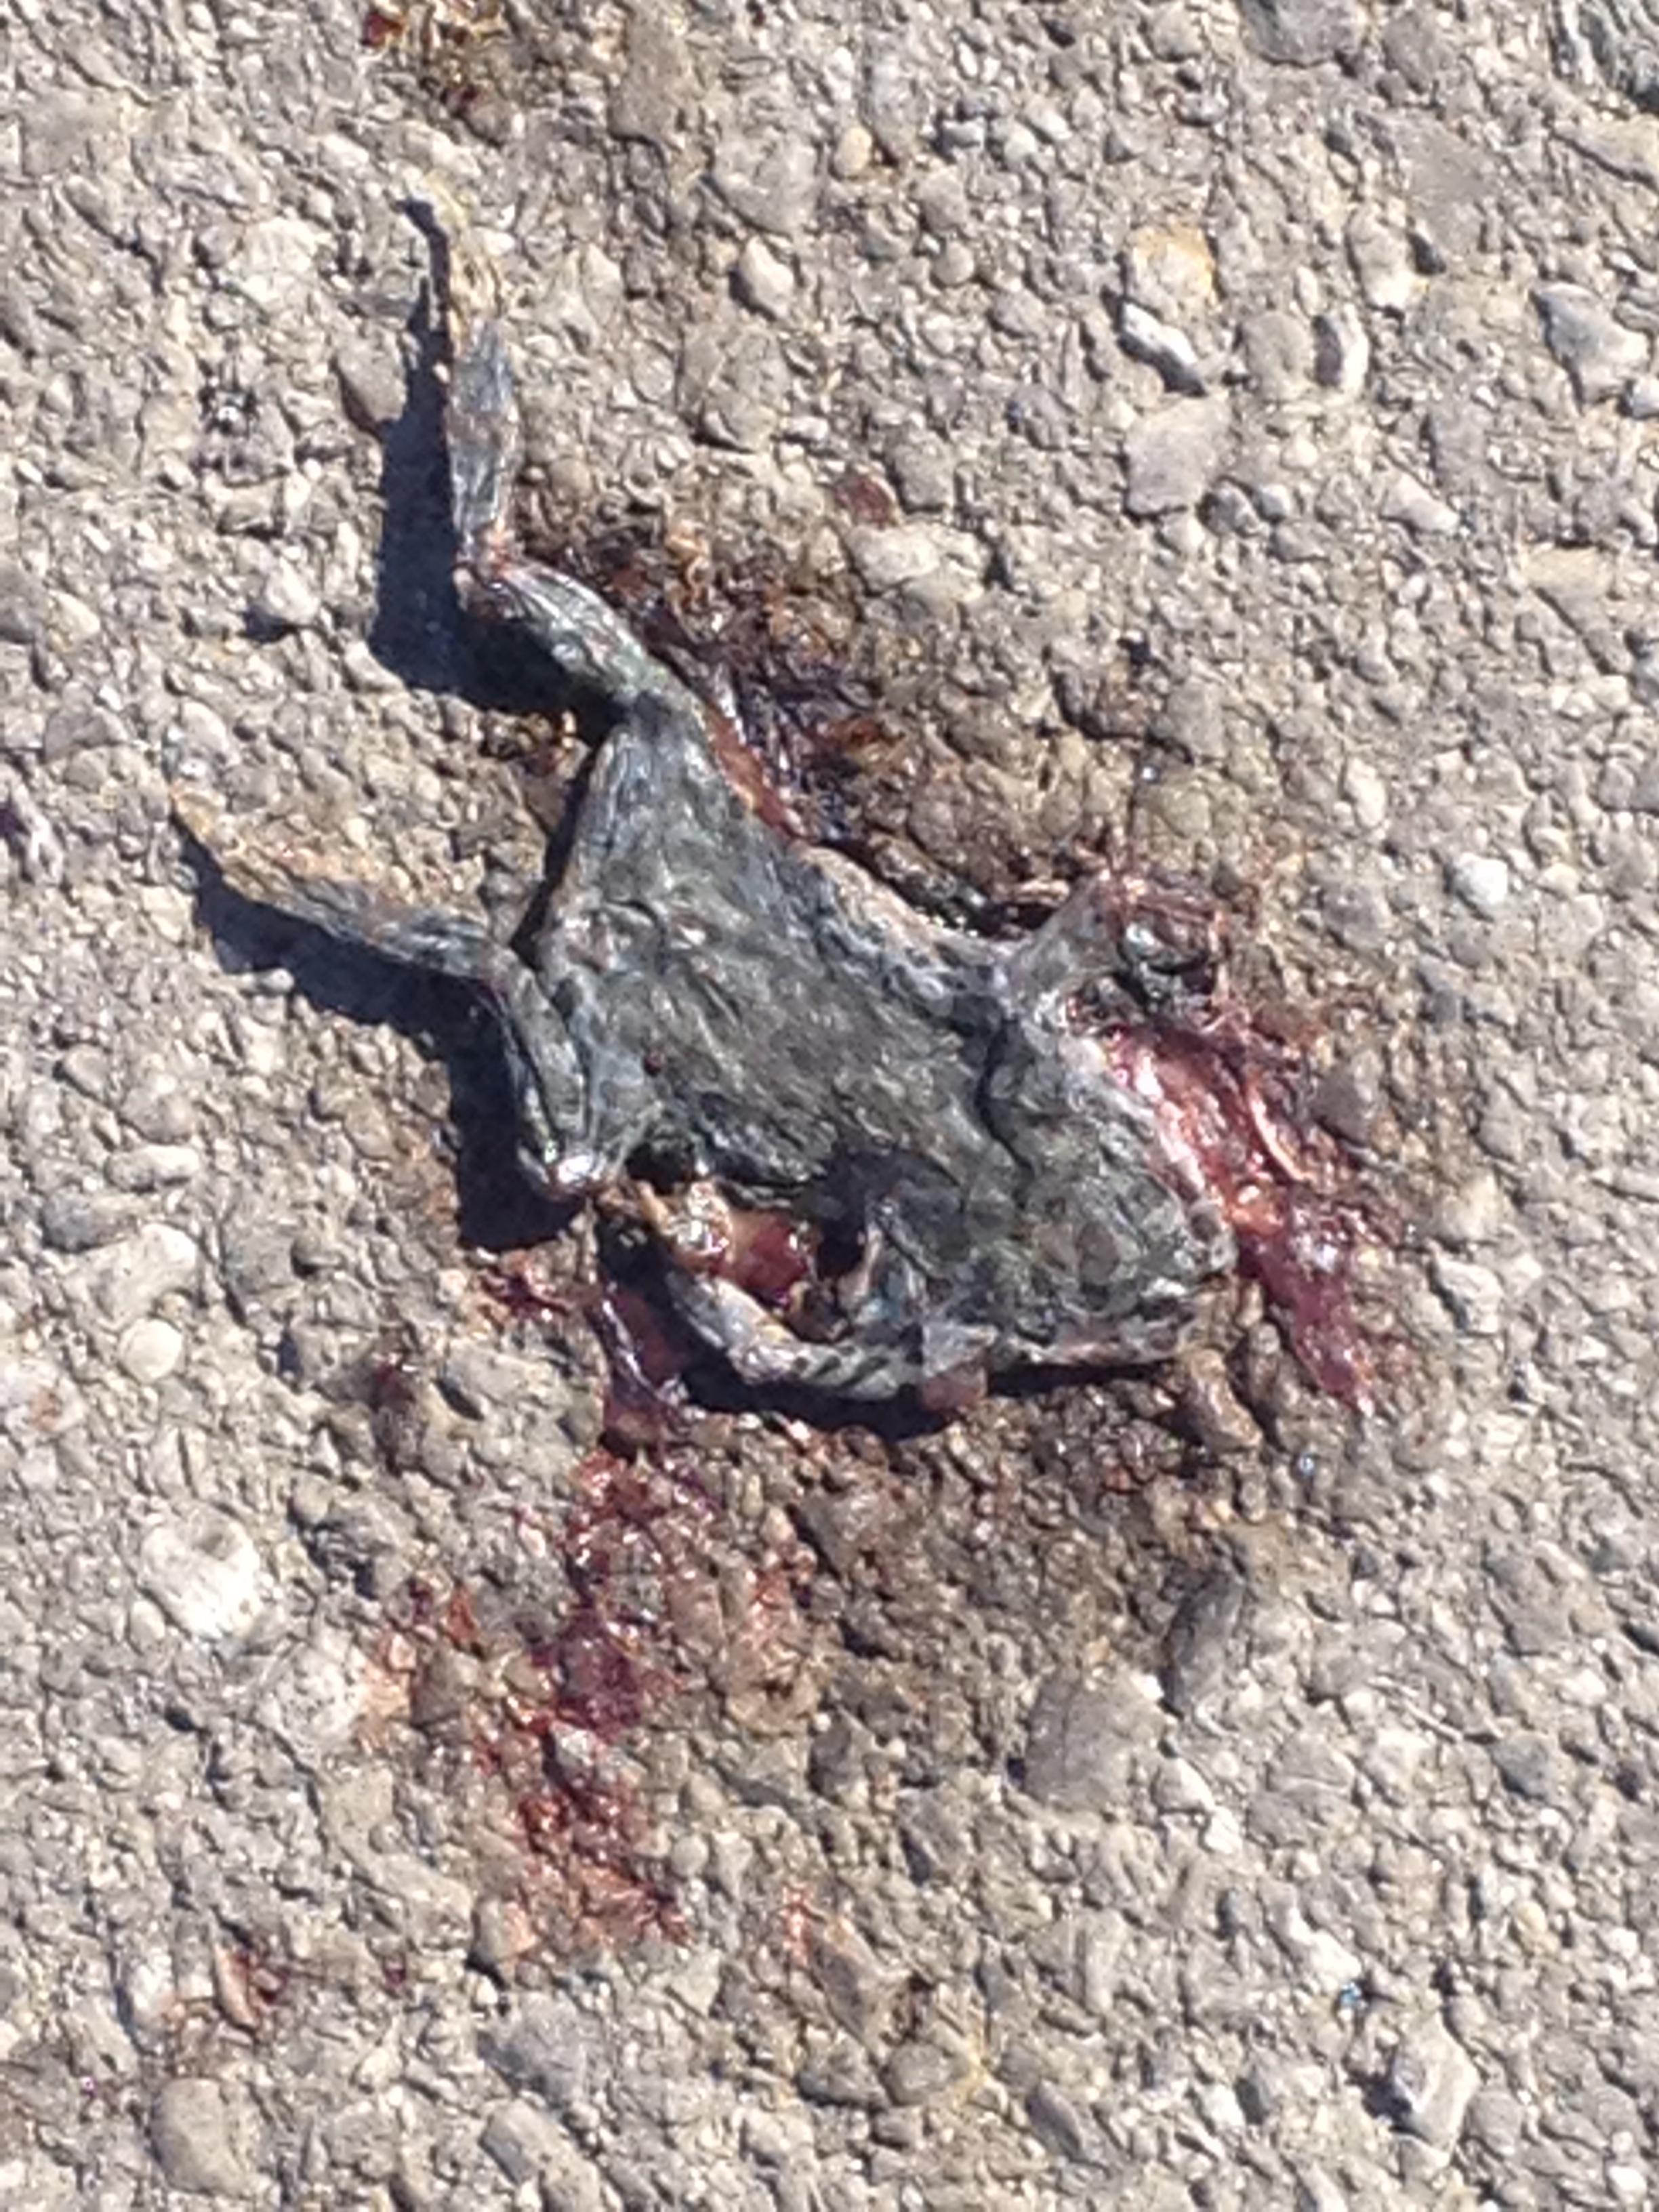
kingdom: Animalia
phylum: Chordata
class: Amphibia
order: Anura
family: Bufonidae
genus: Bufotes
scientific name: Bufotes viridis
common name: European green toad
